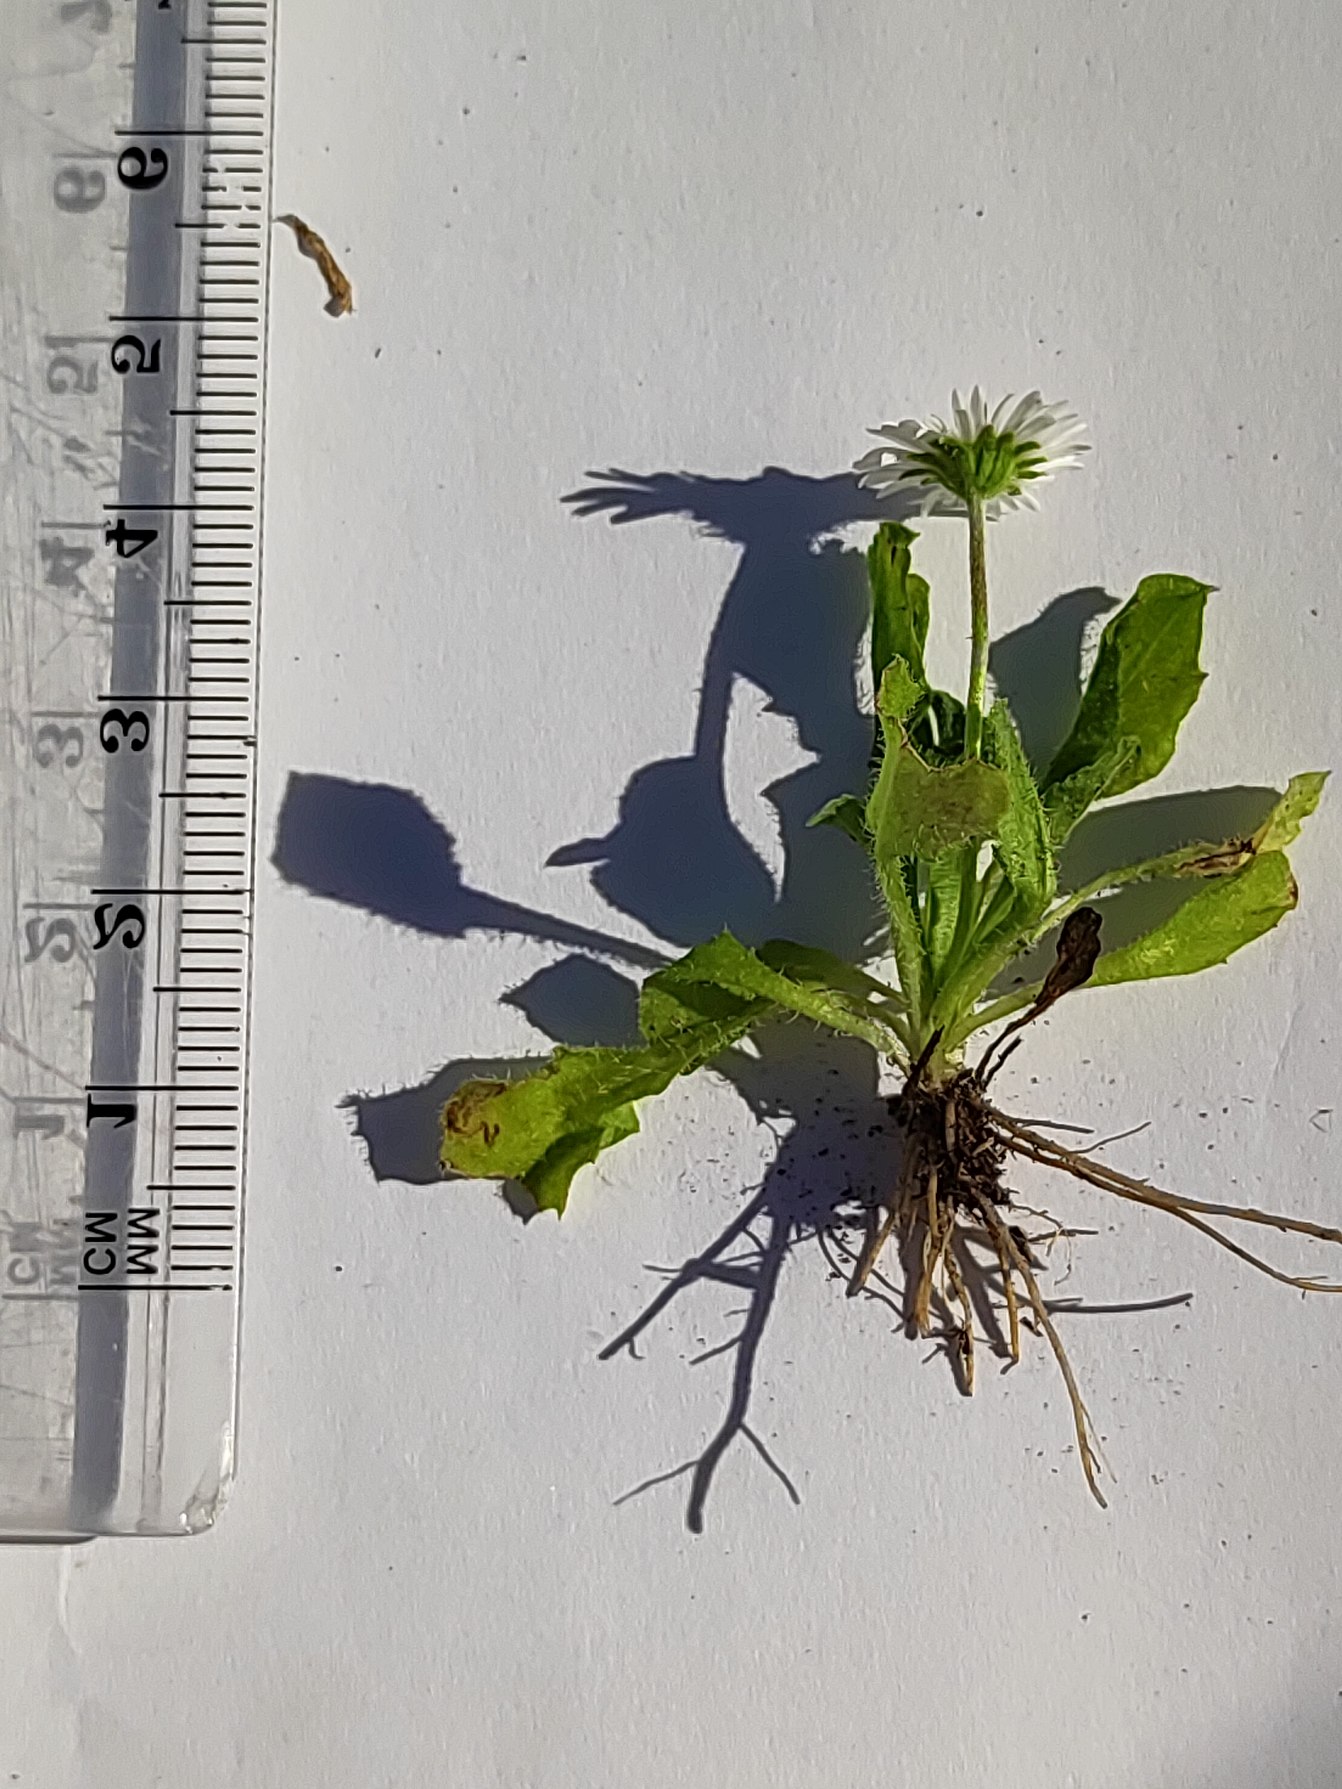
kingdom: Plantae
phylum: Tracheophyta
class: Magnoliopsida
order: Asterales
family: Asteraceae
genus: Bellis
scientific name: Bellis perennis
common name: Tusindfryd
